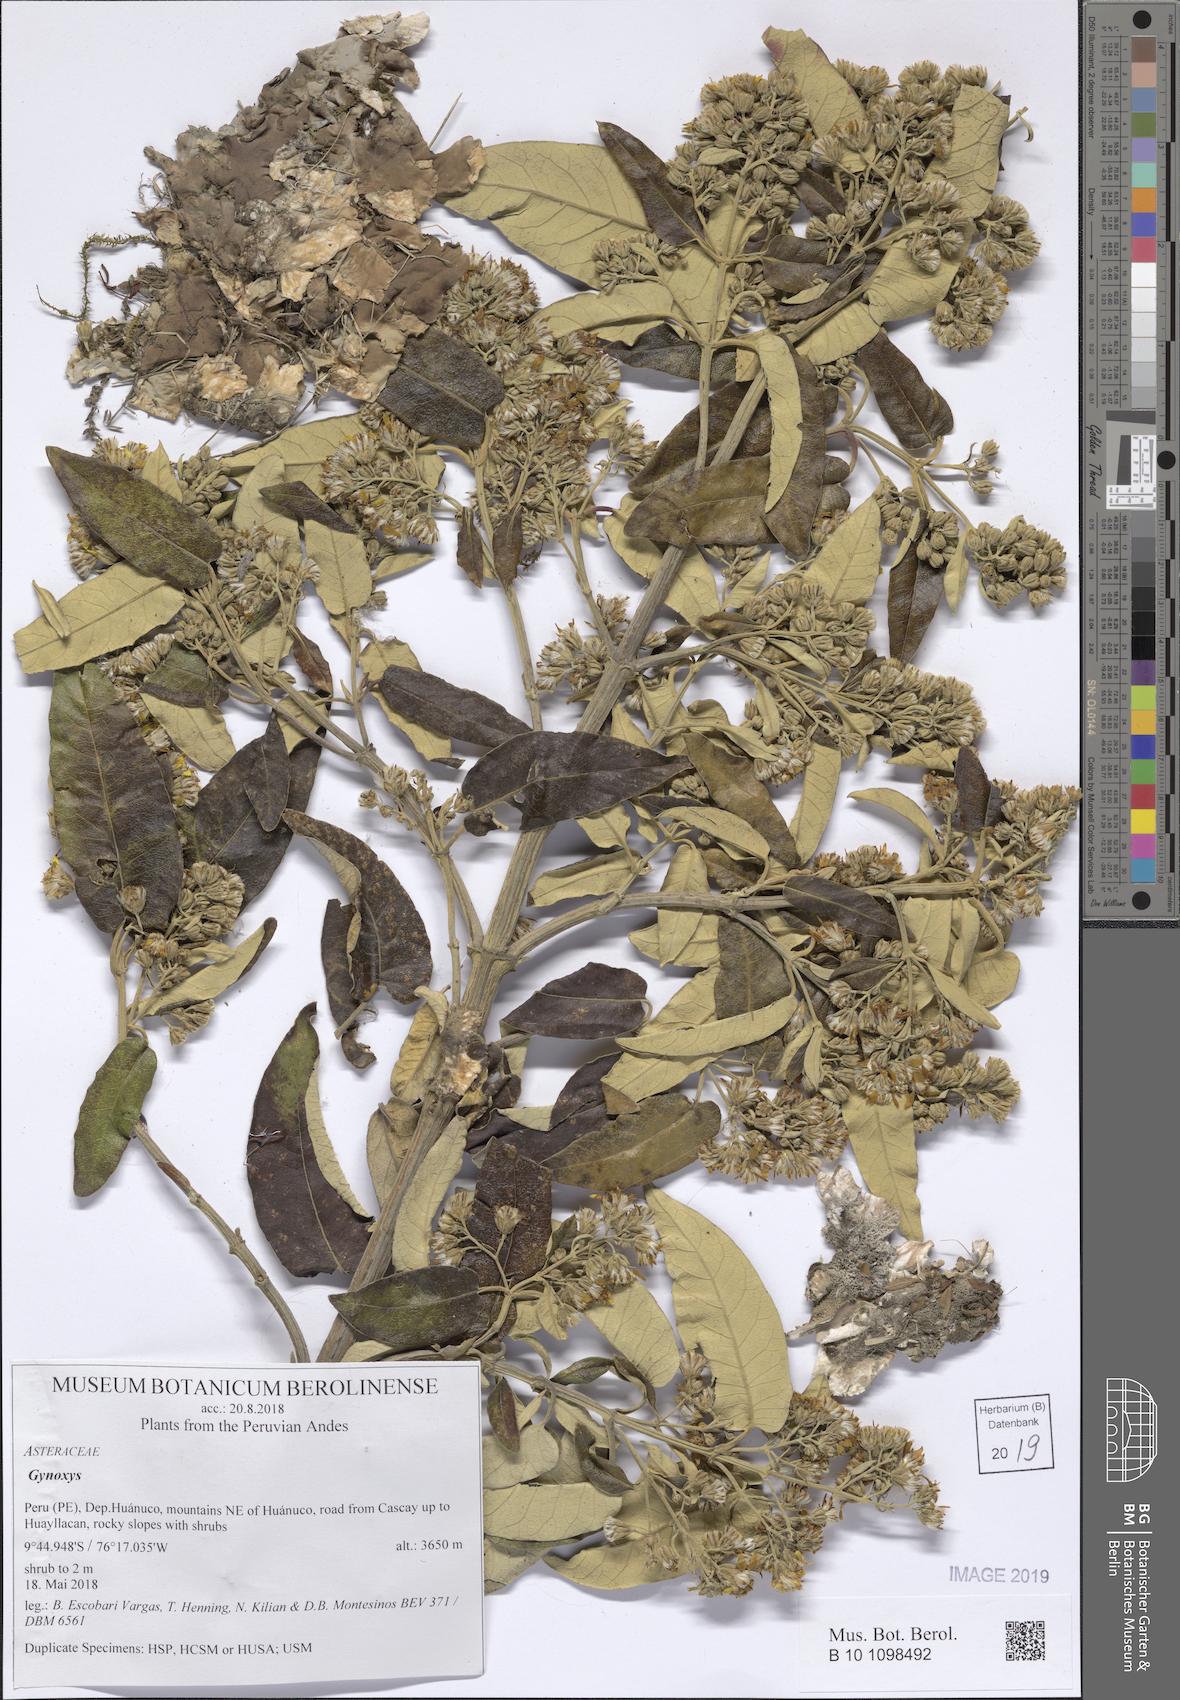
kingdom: Plantae
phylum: Tracheophyta
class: Magnoliopsida
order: Asterales
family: Asteraceae
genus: Gynoxys
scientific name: Gynoxys
